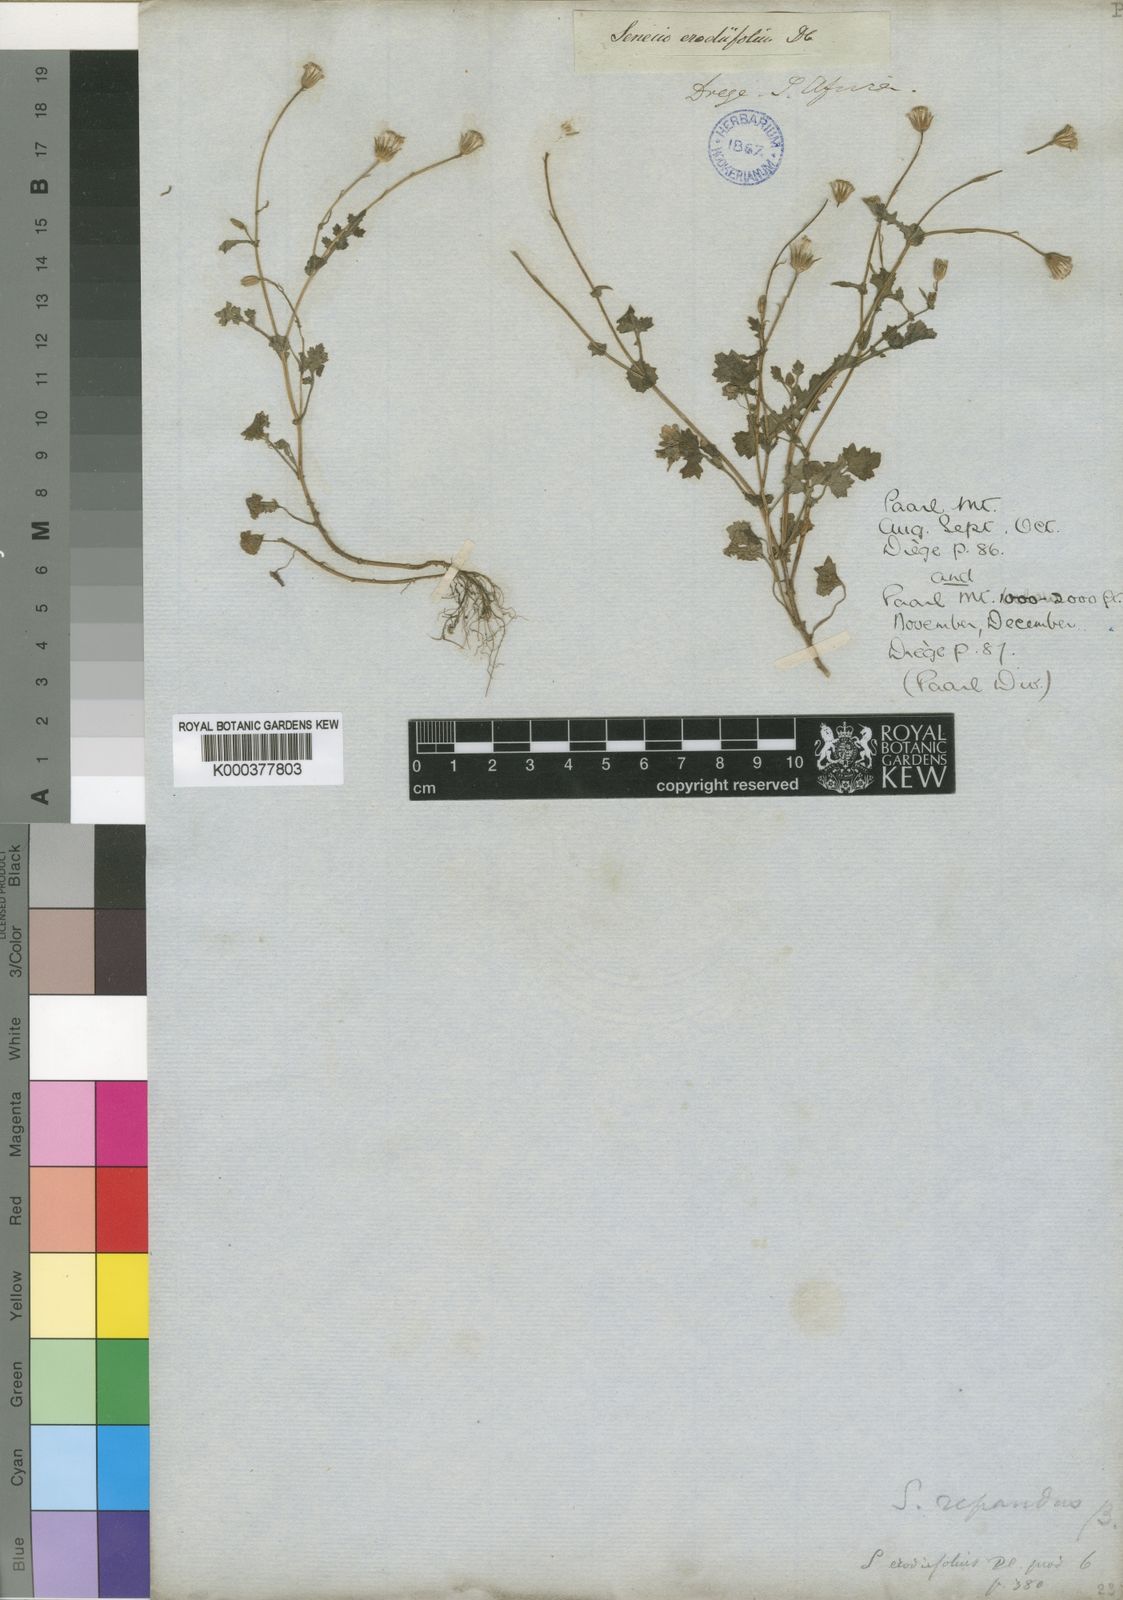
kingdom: Plantae
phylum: Tracheophyta
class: Magnoliopsida
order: Asterales
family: Asteraceae
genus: Senecio
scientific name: Senecio repandus
